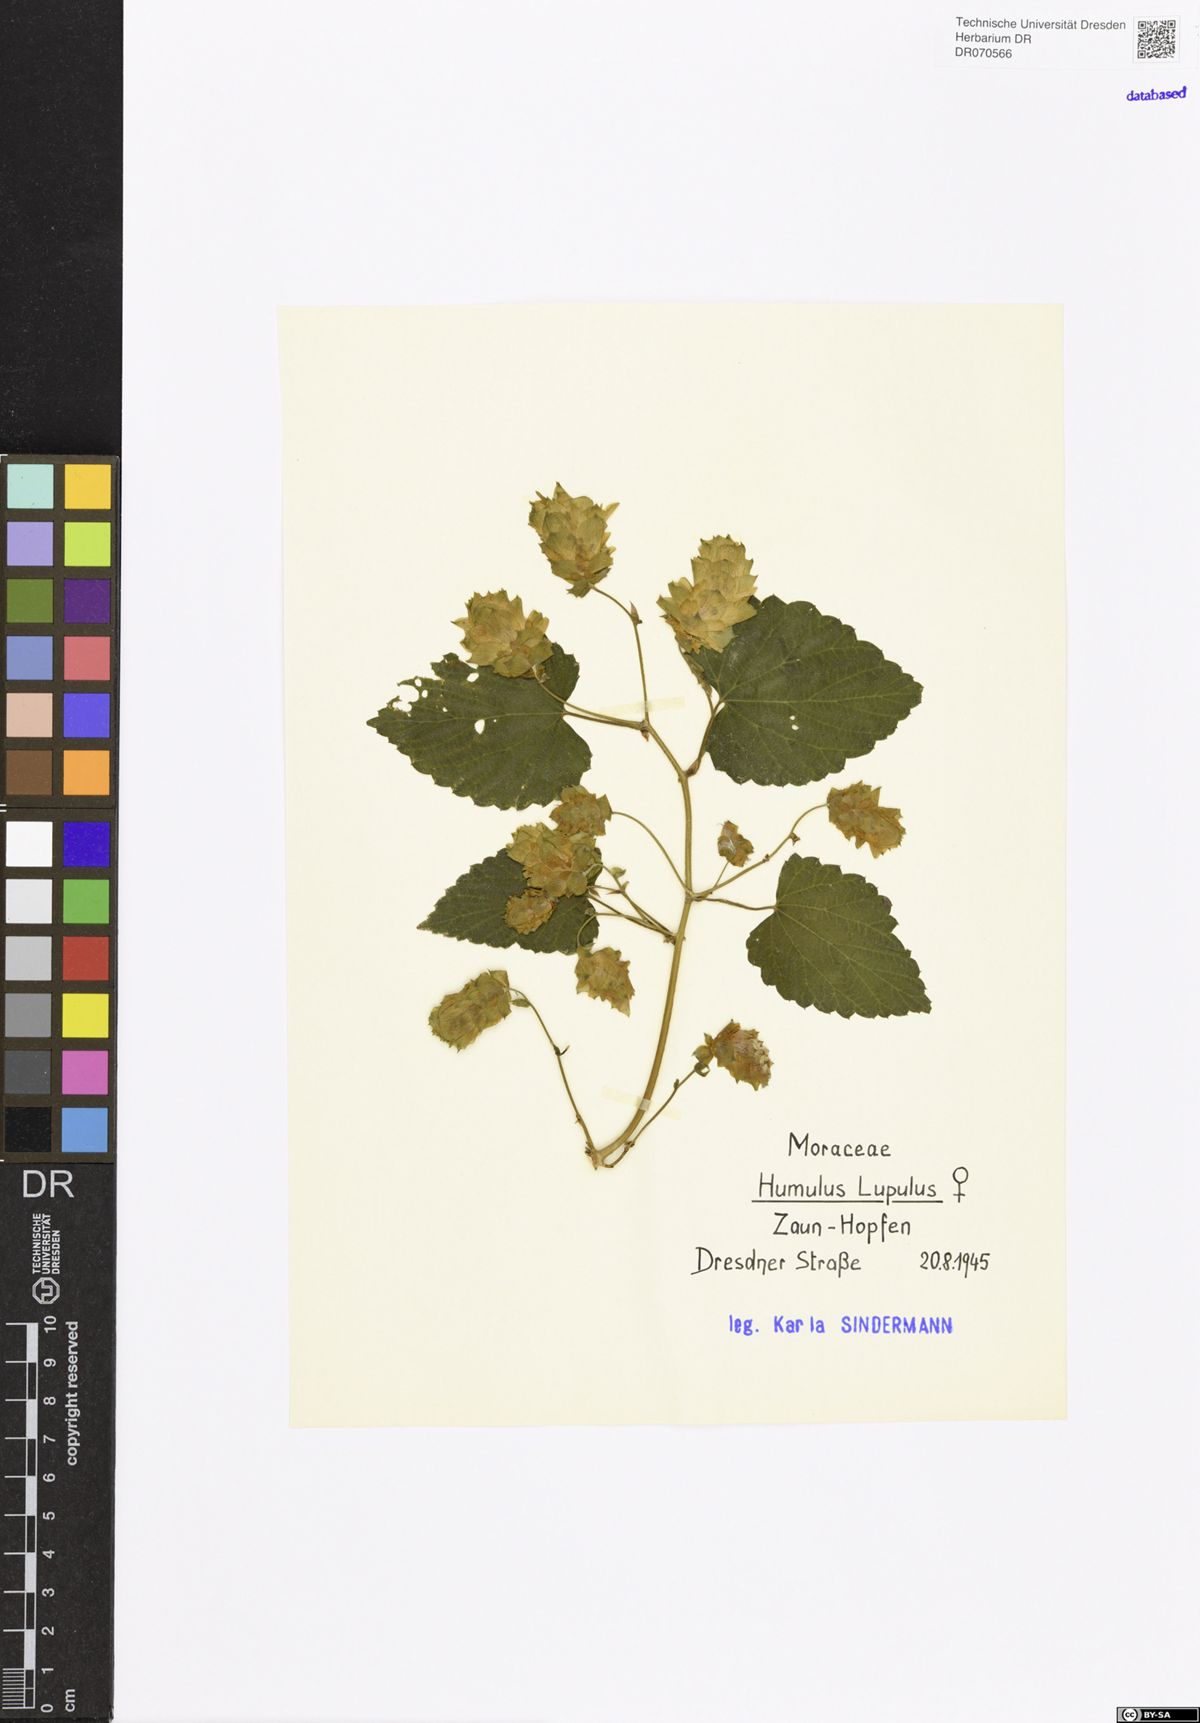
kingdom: Plantae
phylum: Tracheophyta
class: Magnoliopsida
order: Rosales
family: Cannabaceae
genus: Humulus
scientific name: Humulus lupulus
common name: Hop
